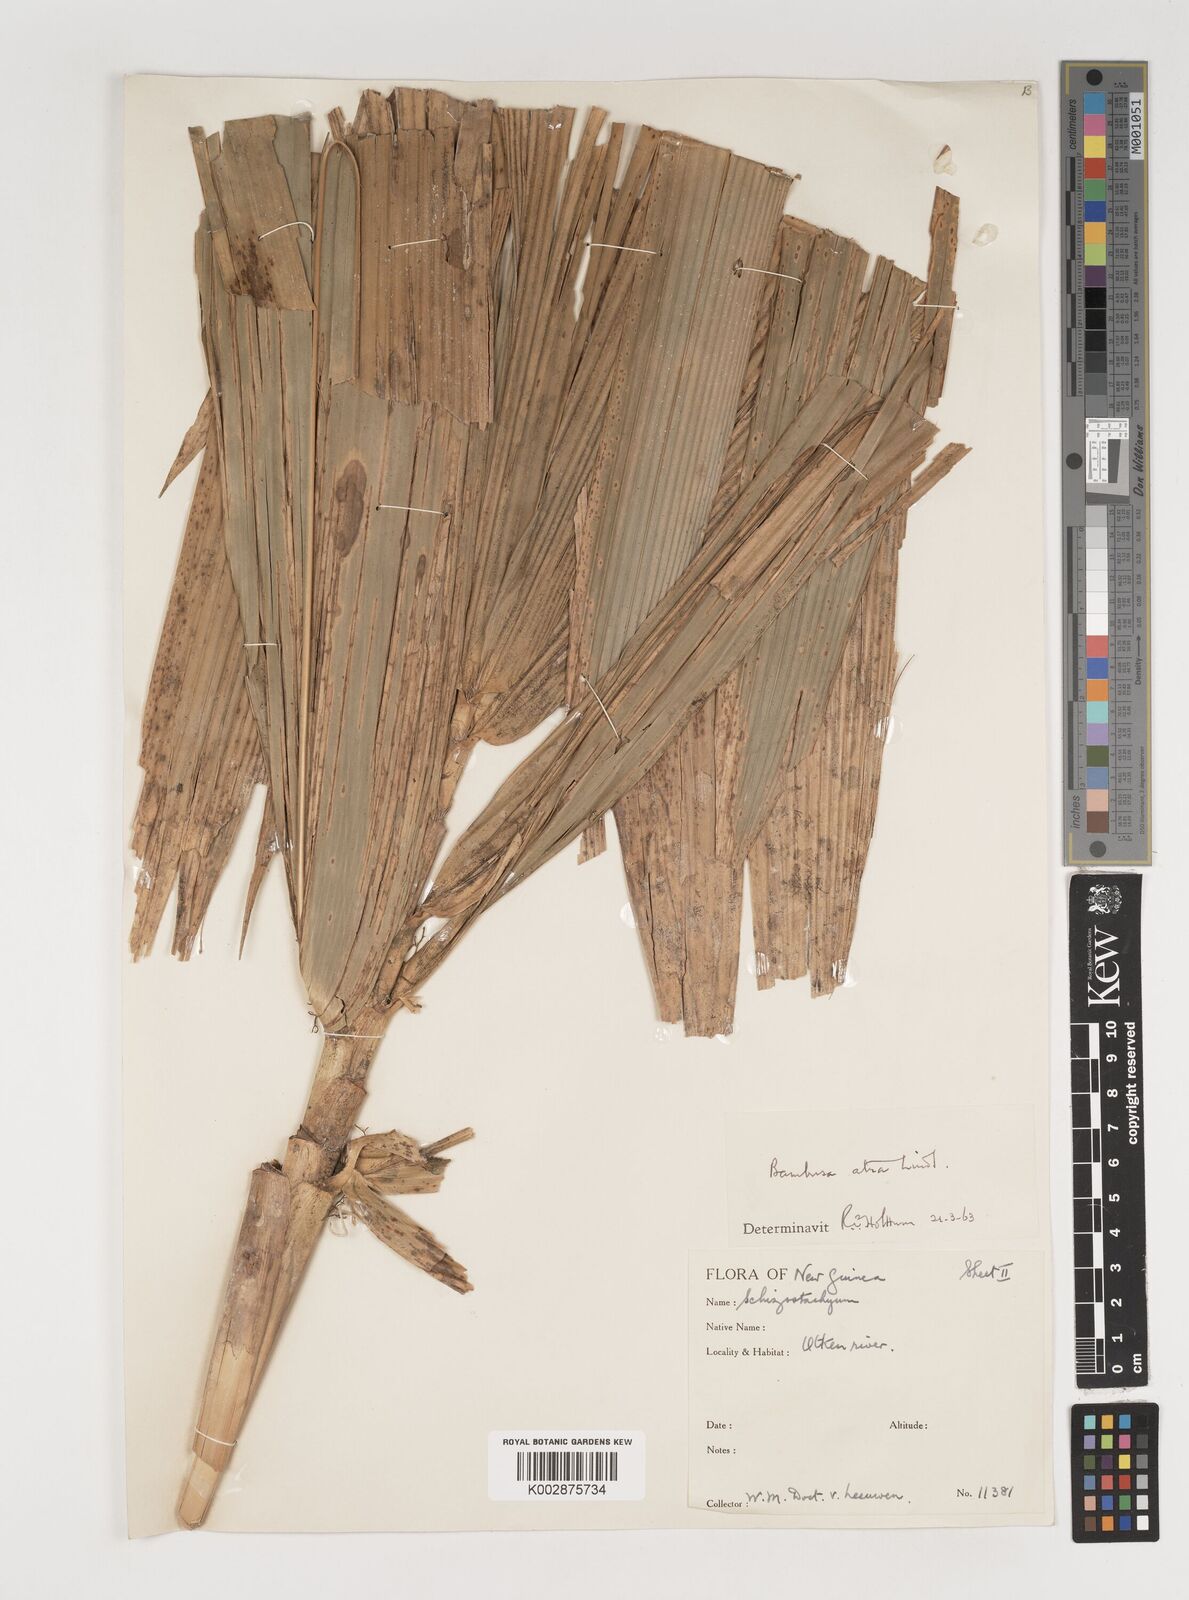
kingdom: Plantae
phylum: Tracheophyta
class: Liliopsida
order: Poales
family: Poaceae
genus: Neololeba
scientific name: Neololeba atra
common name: Cape bamboo
